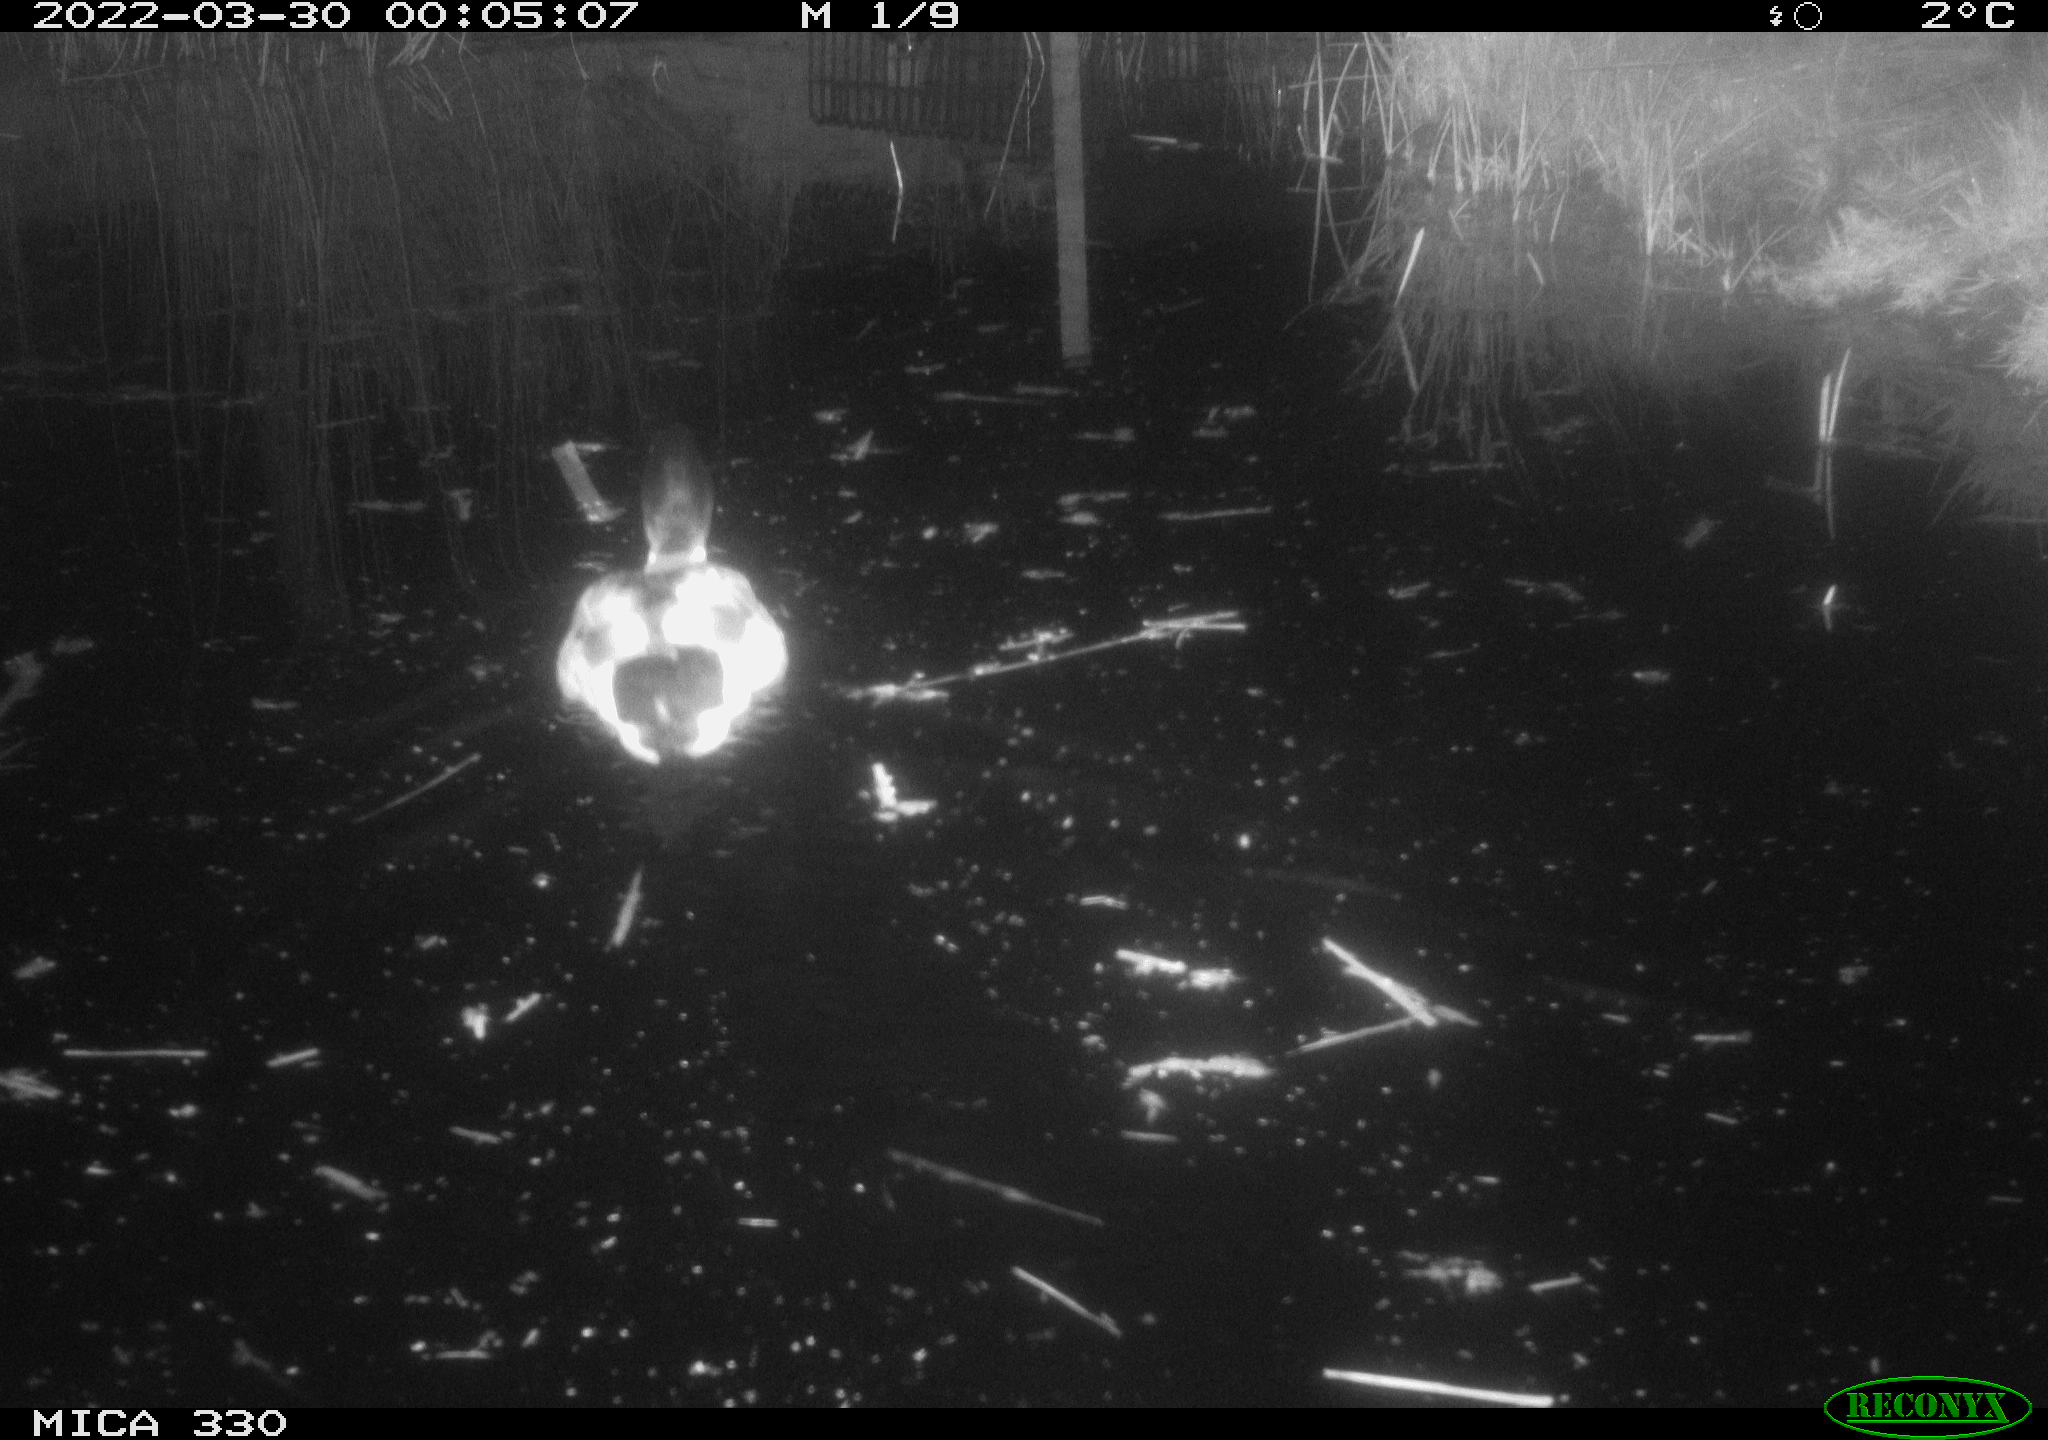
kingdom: Animalia
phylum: Chordata
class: Aves
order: Anseriformes
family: Anatidae
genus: Anas
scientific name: Anas platyrhynchos
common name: Mallard
